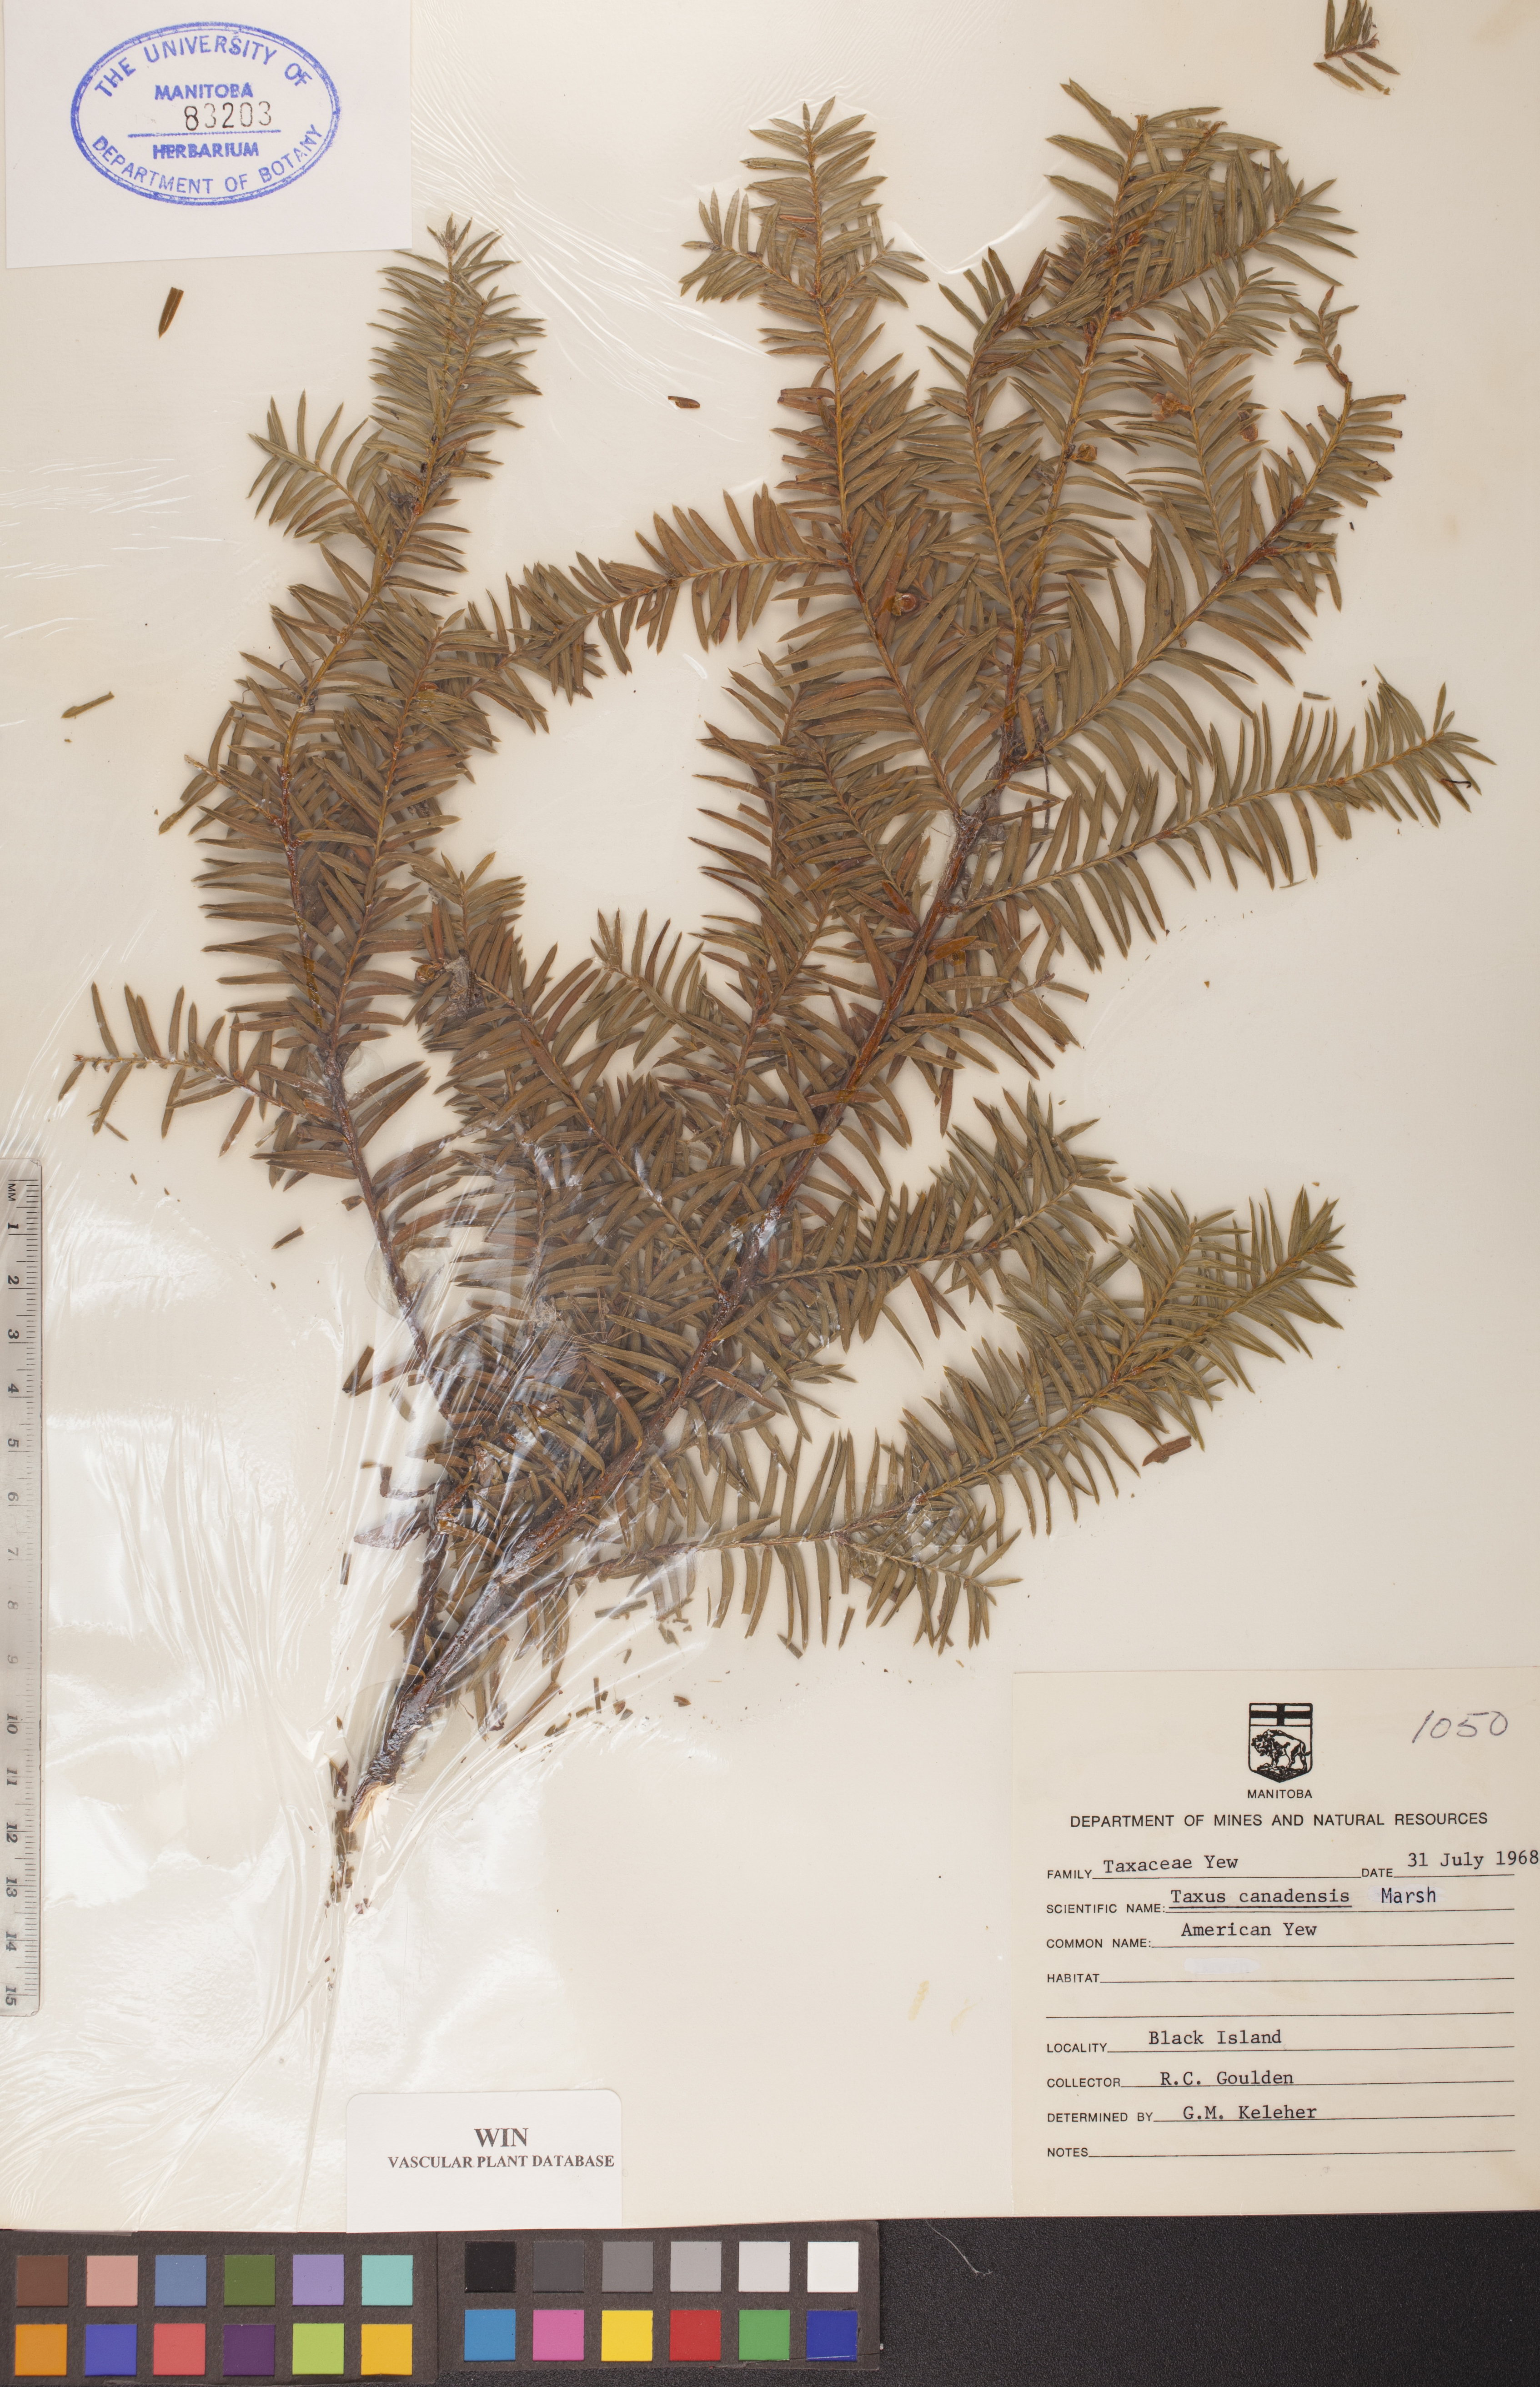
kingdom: Plantae
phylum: Tracheophyta
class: Pinopsida
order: Pinales
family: Taxaceae
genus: Taxus
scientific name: Taxus canadensis
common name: American yew
